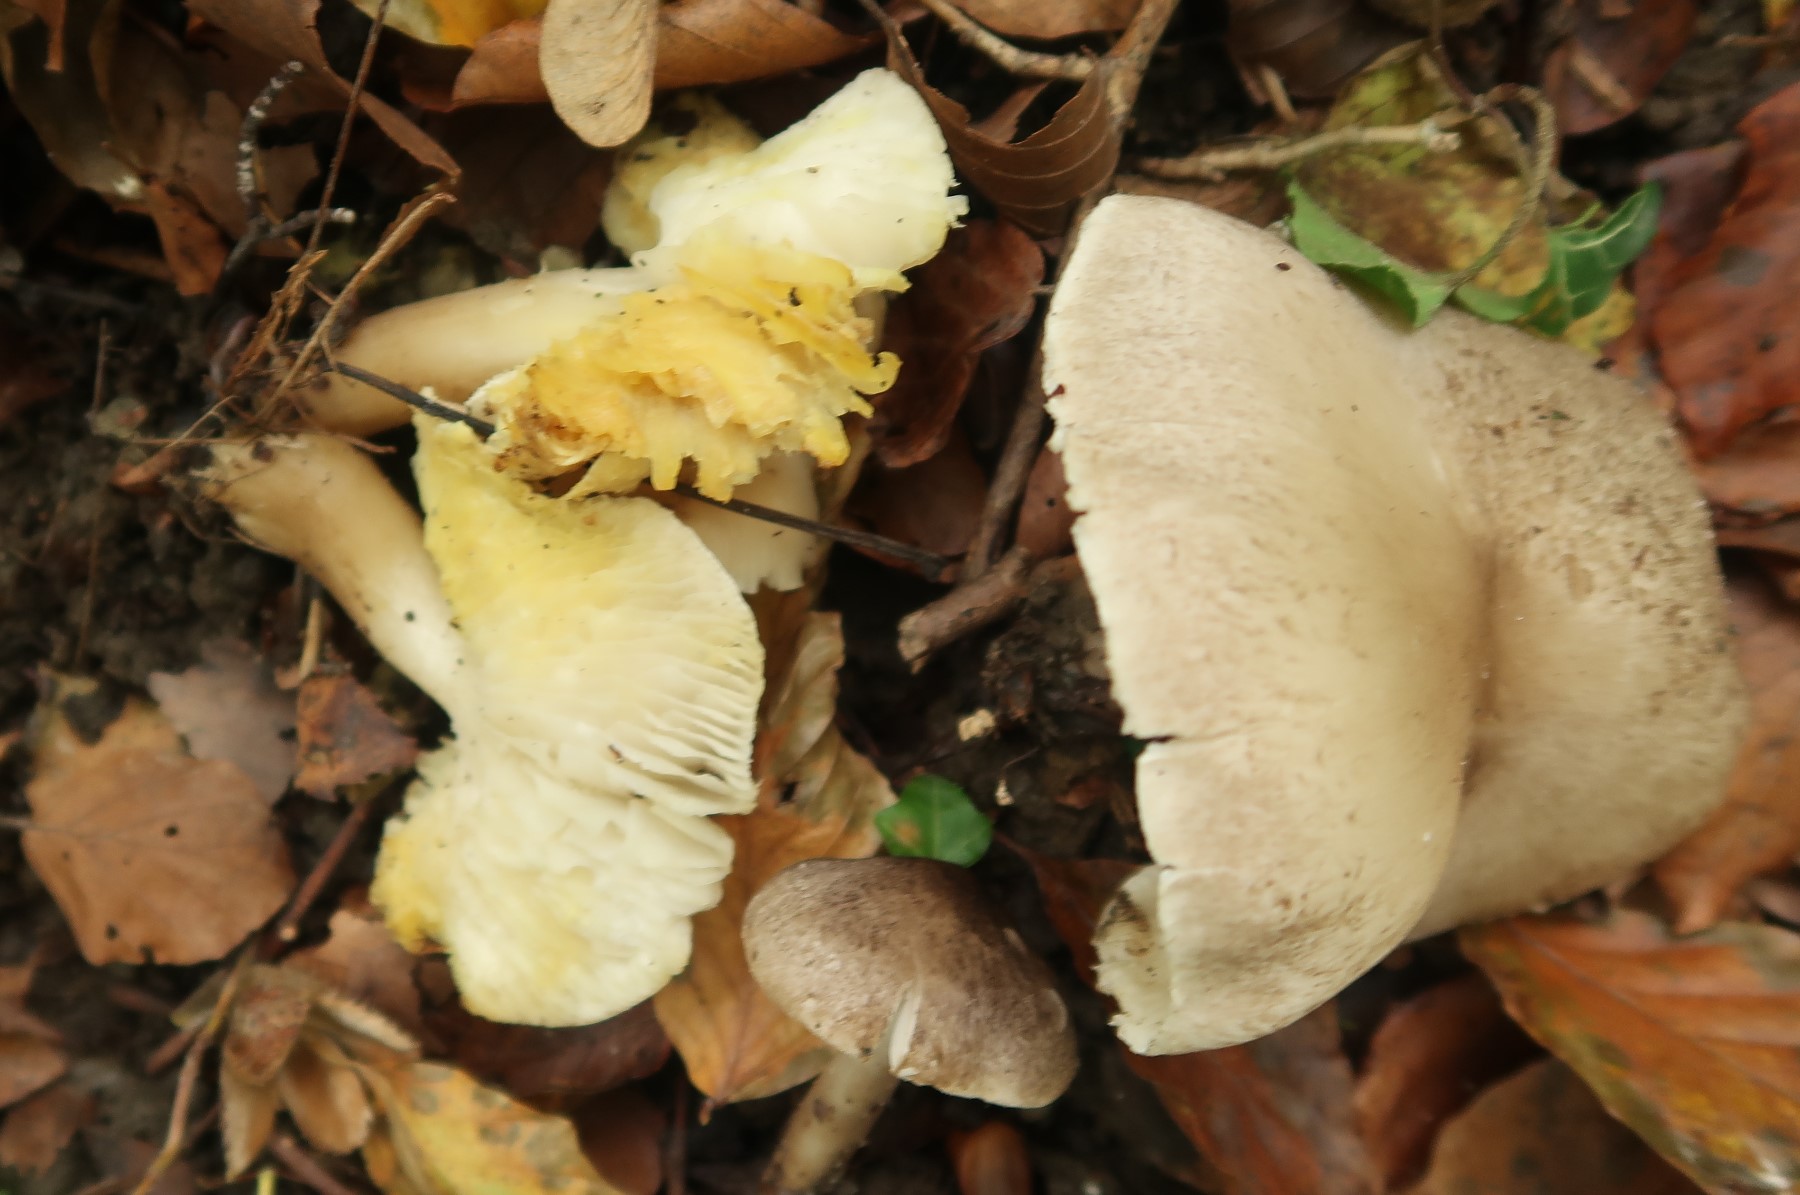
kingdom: Fungi
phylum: Basidiomycota
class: Agaricomycetes
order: Agaricales
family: Tricholomataceae
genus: Tricholoma
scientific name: Tricholoma scalpturatum
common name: gulplettet ridderhat
